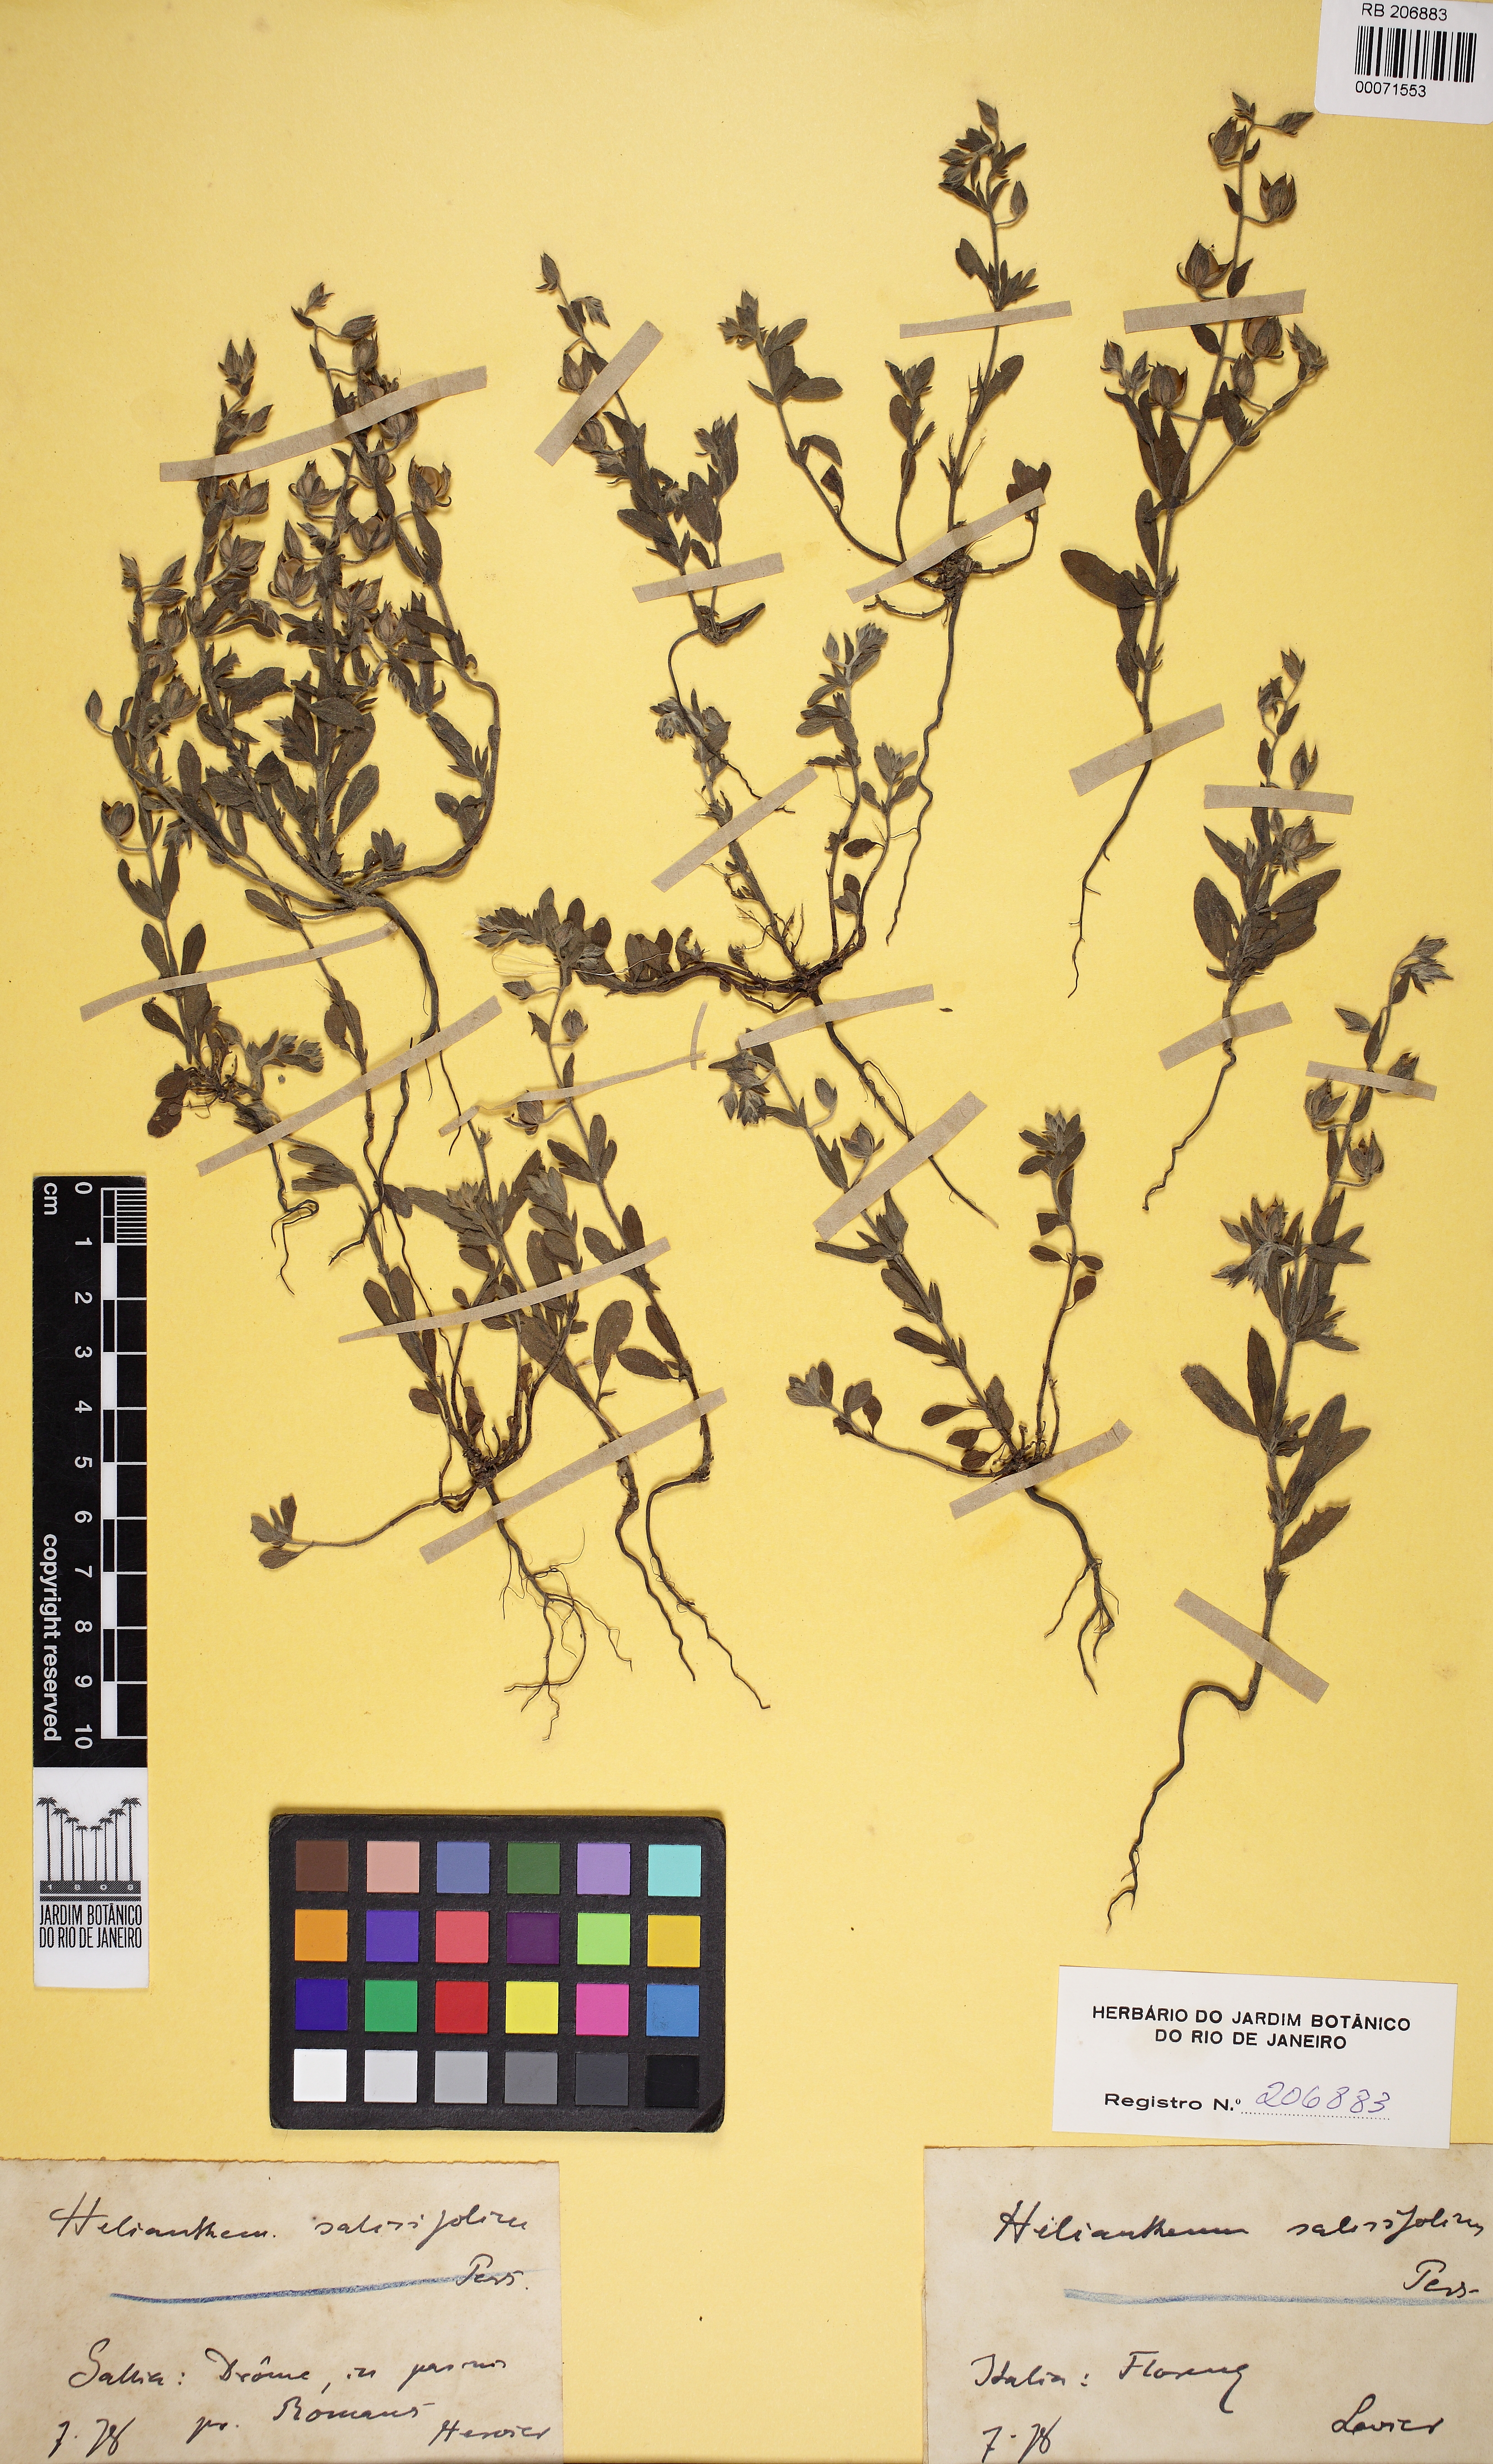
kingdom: Plantae
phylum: Tracheophyta
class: Magnoliopsida
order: Malvales
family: Cistaceae
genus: Helianthemum
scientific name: Helianthemum salicifolium
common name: Willowleaf frostweed
